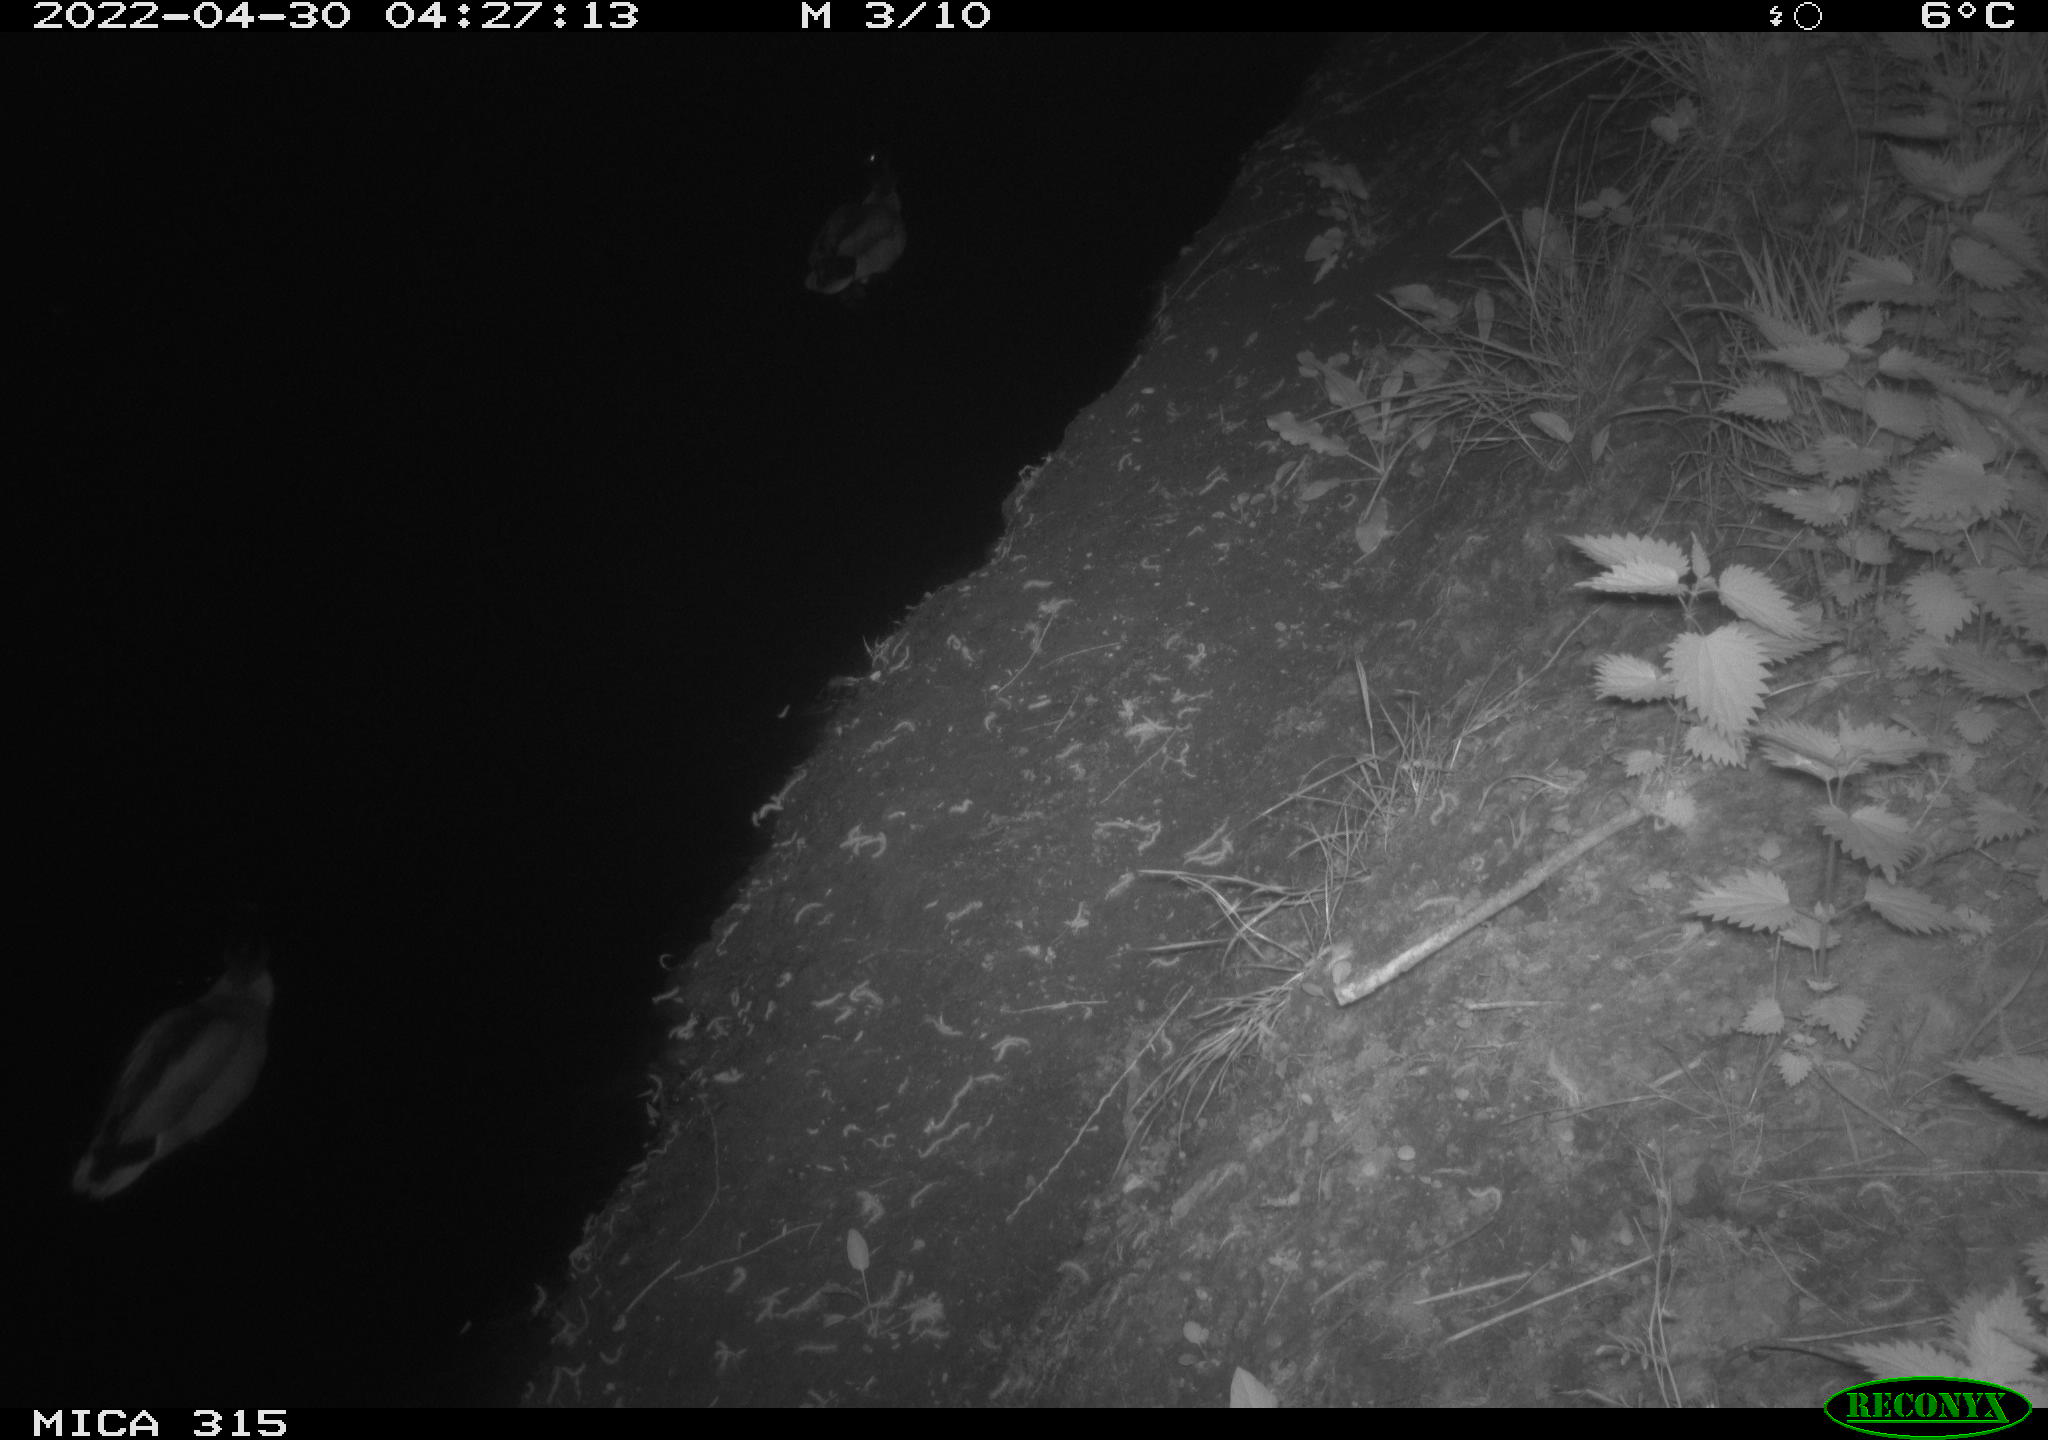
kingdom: Animalia
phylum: Chordata
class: Aves
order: Anseriformes
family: Anatidae
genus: Anas
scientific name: Anas platyrhynchos
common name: Mallard
